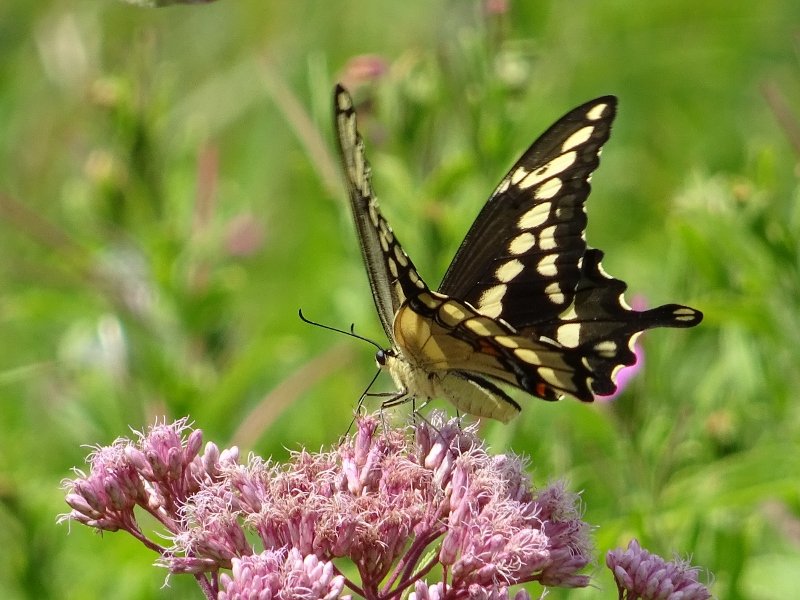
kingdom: Animalia
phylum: Arthropoda
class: Insecta
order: Lepidoptera
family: Papilionidae
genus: Papilio
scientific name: Papilio cresphontes
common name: Eastern Giant Swallowtail
